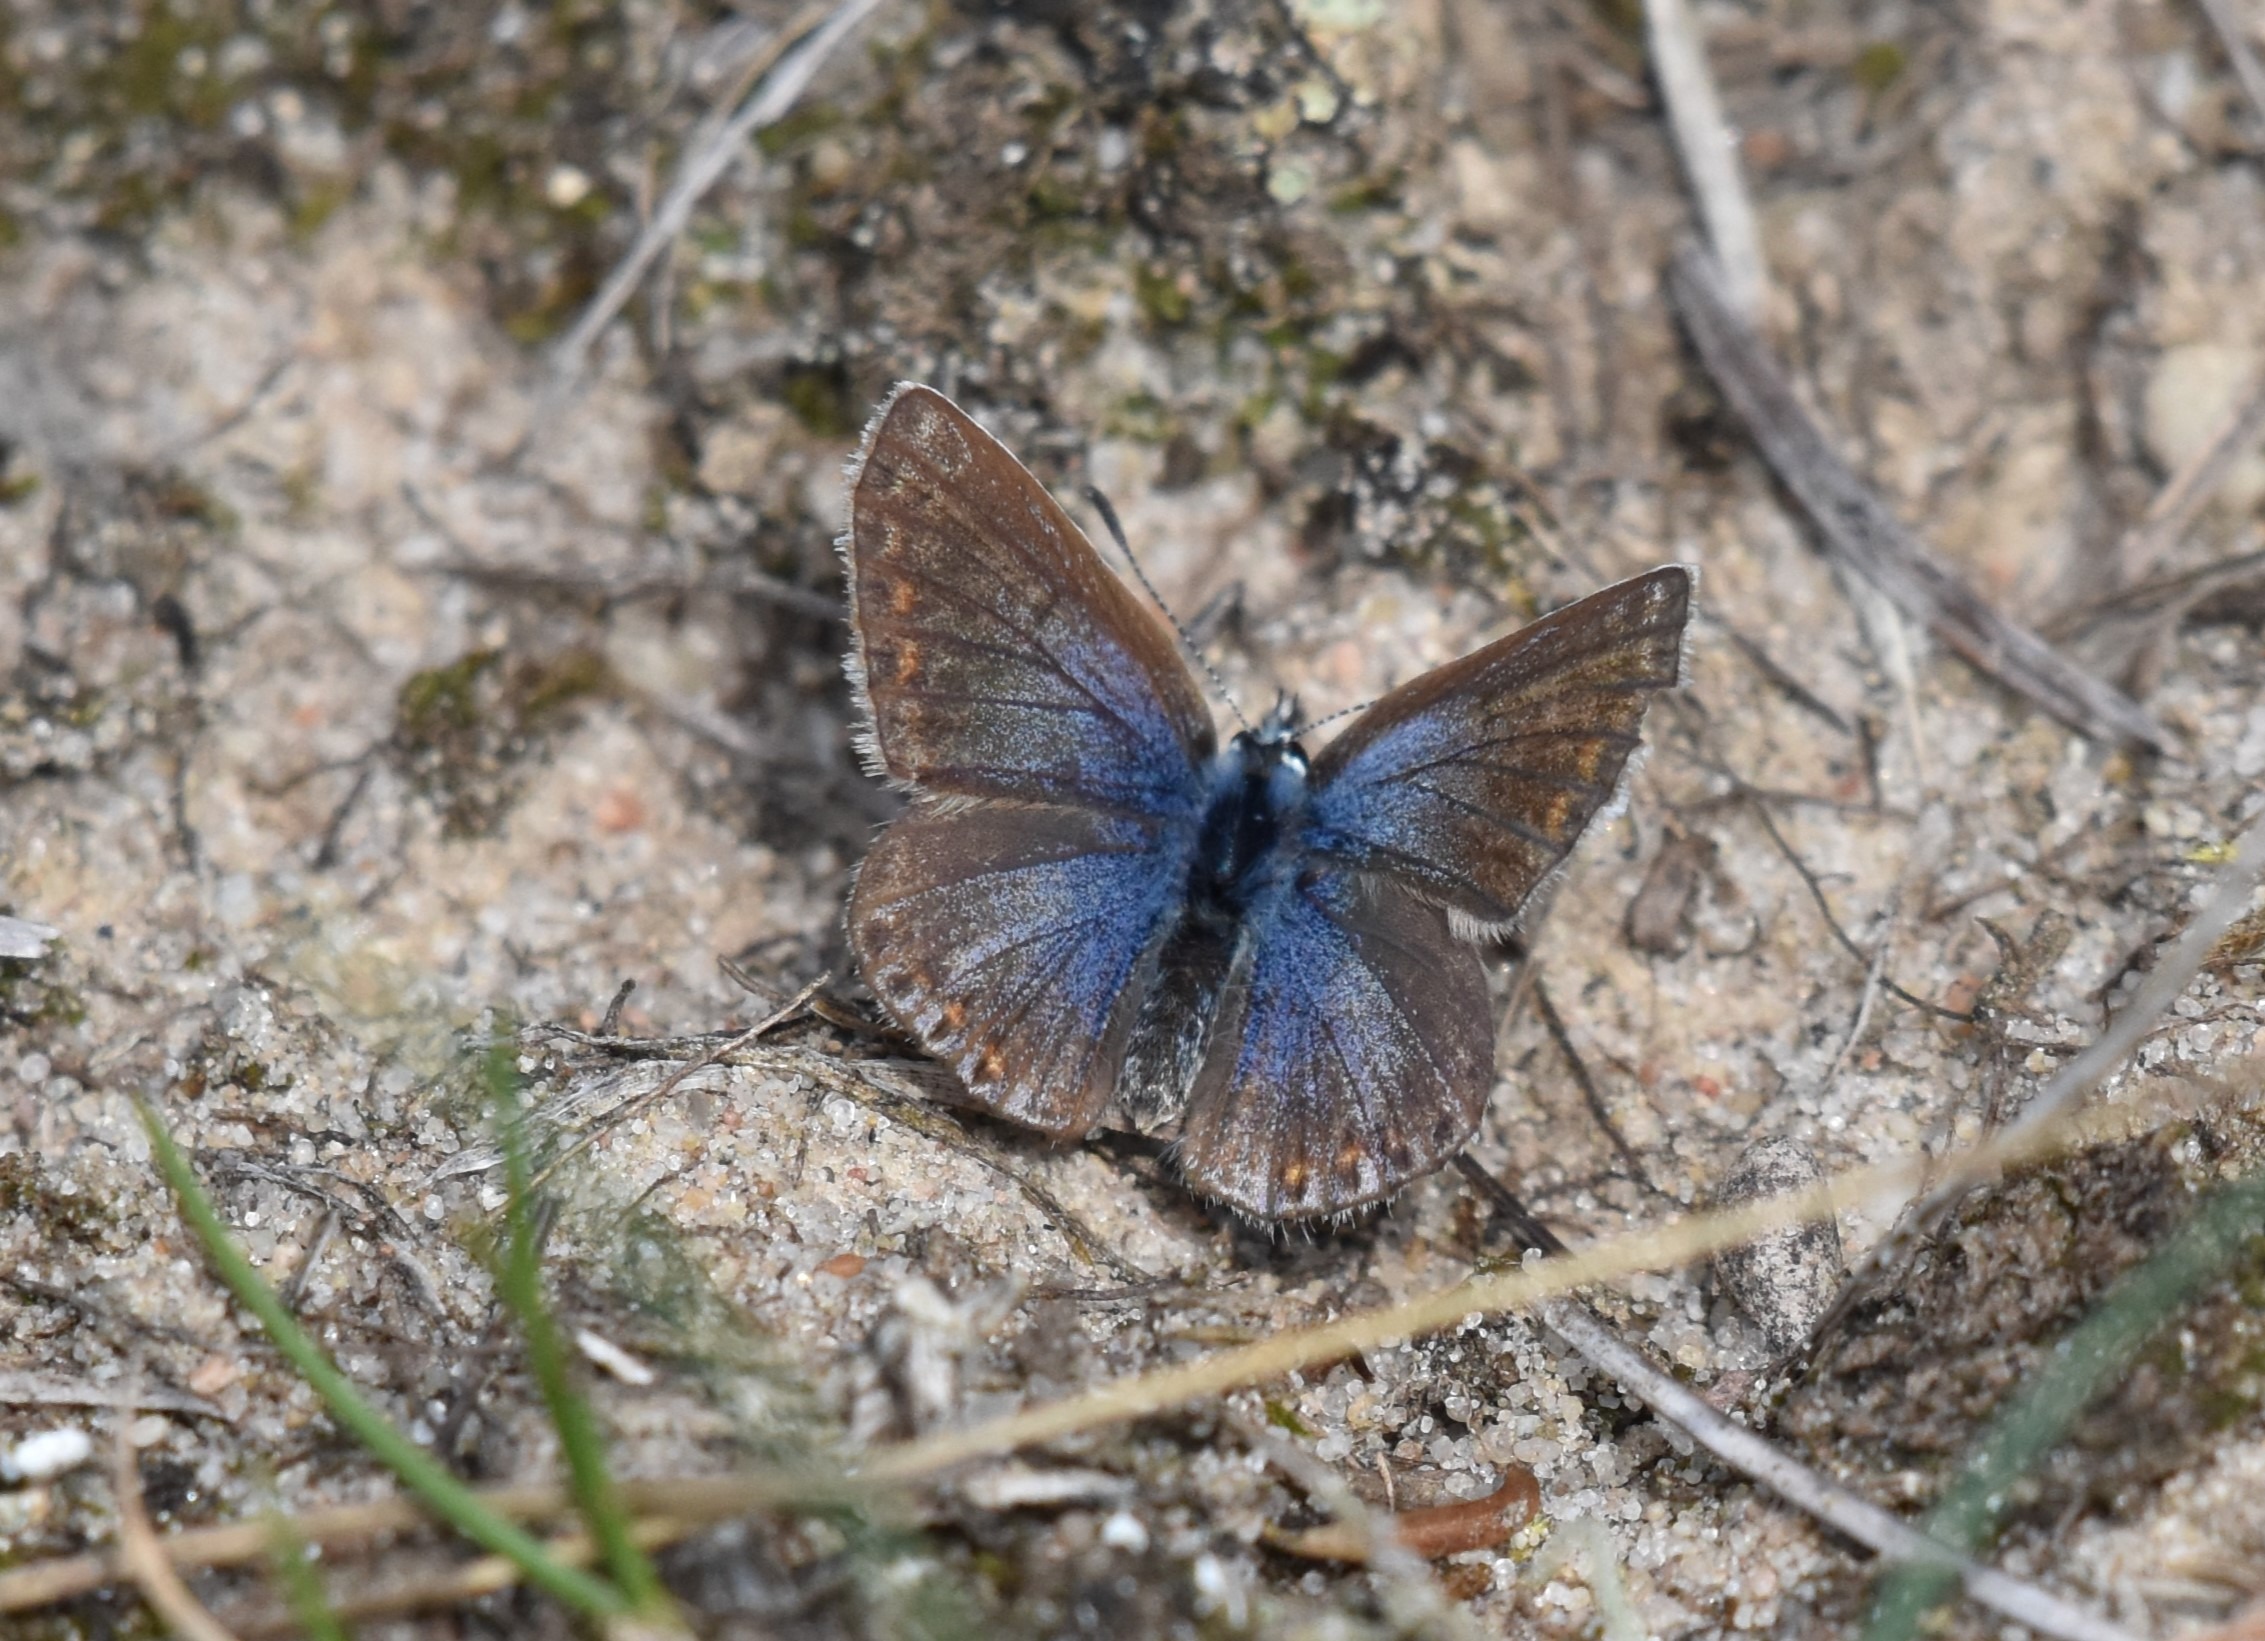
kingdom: Animalia
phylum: Arthropoda
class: Insecta
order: Lepidoptera
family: Lycaenidae
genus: Polyommatus
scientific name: Polyommatus icarus
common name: Almindelig blåfugl
